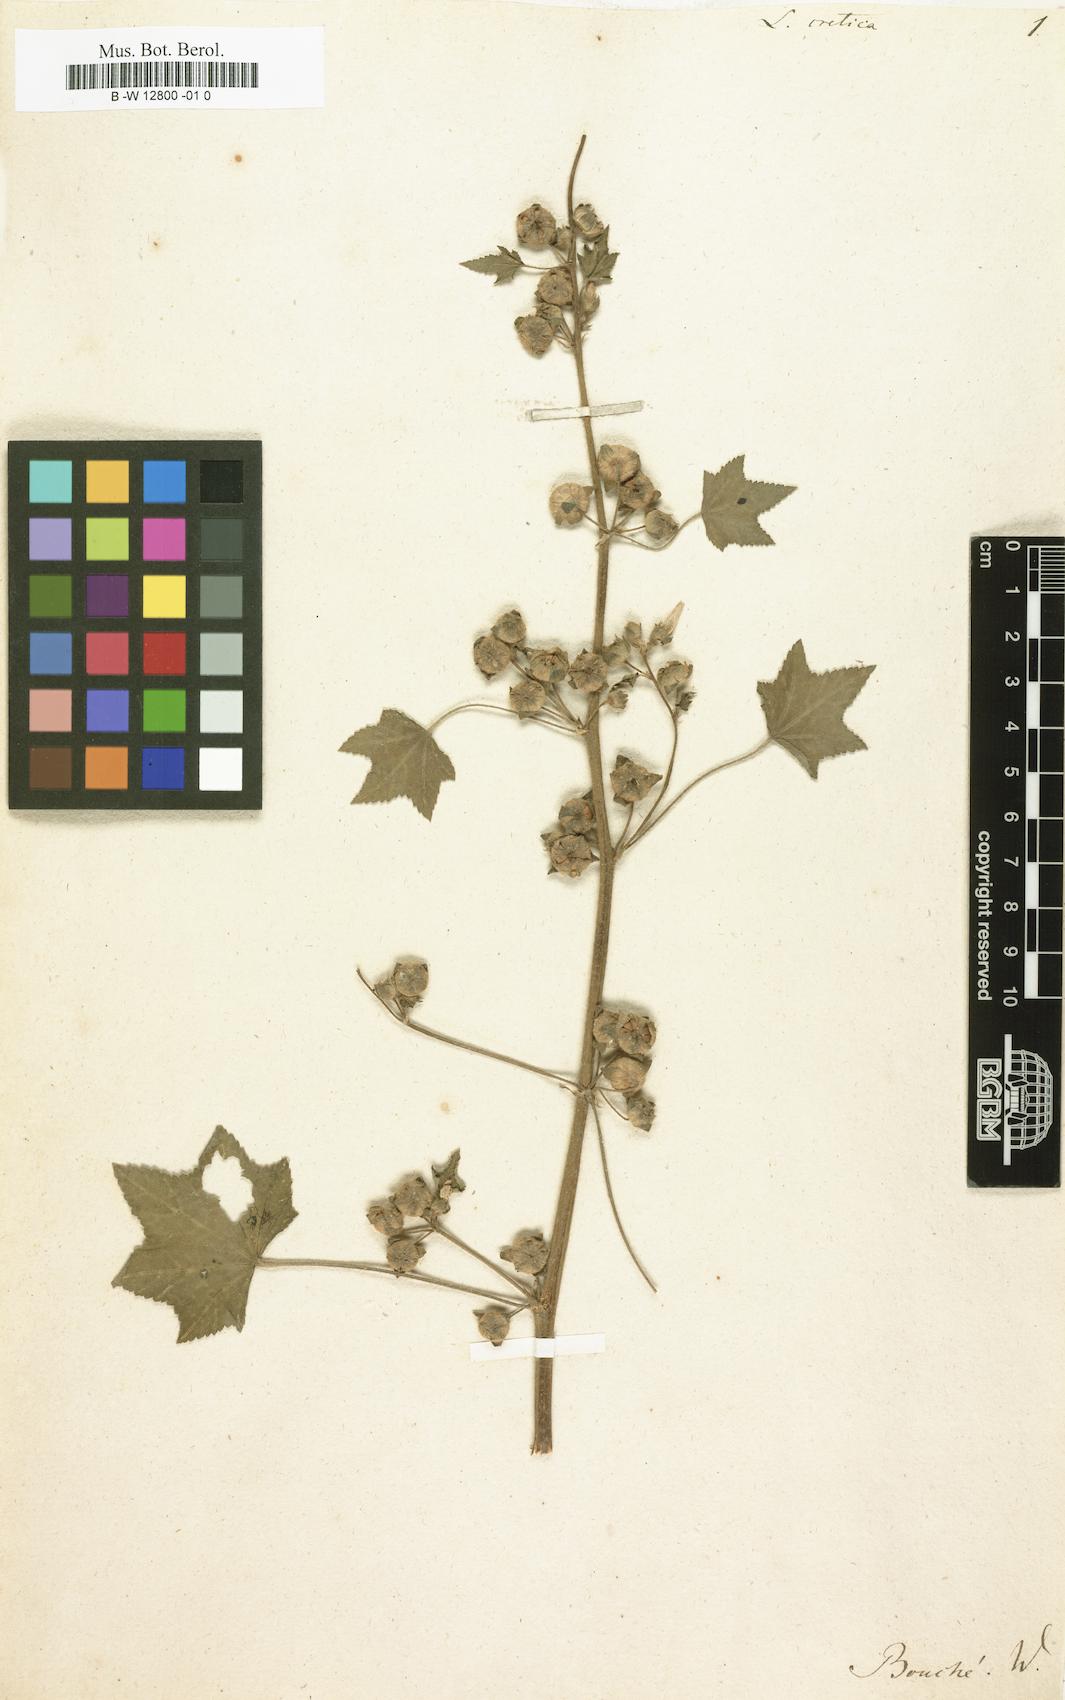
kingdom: Plantae
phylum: Tracheophyta
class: Magnoliopsida
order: Malvales
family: Malvaceae
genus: Malva
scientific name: Malva multiflora
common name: Cheeseweed
